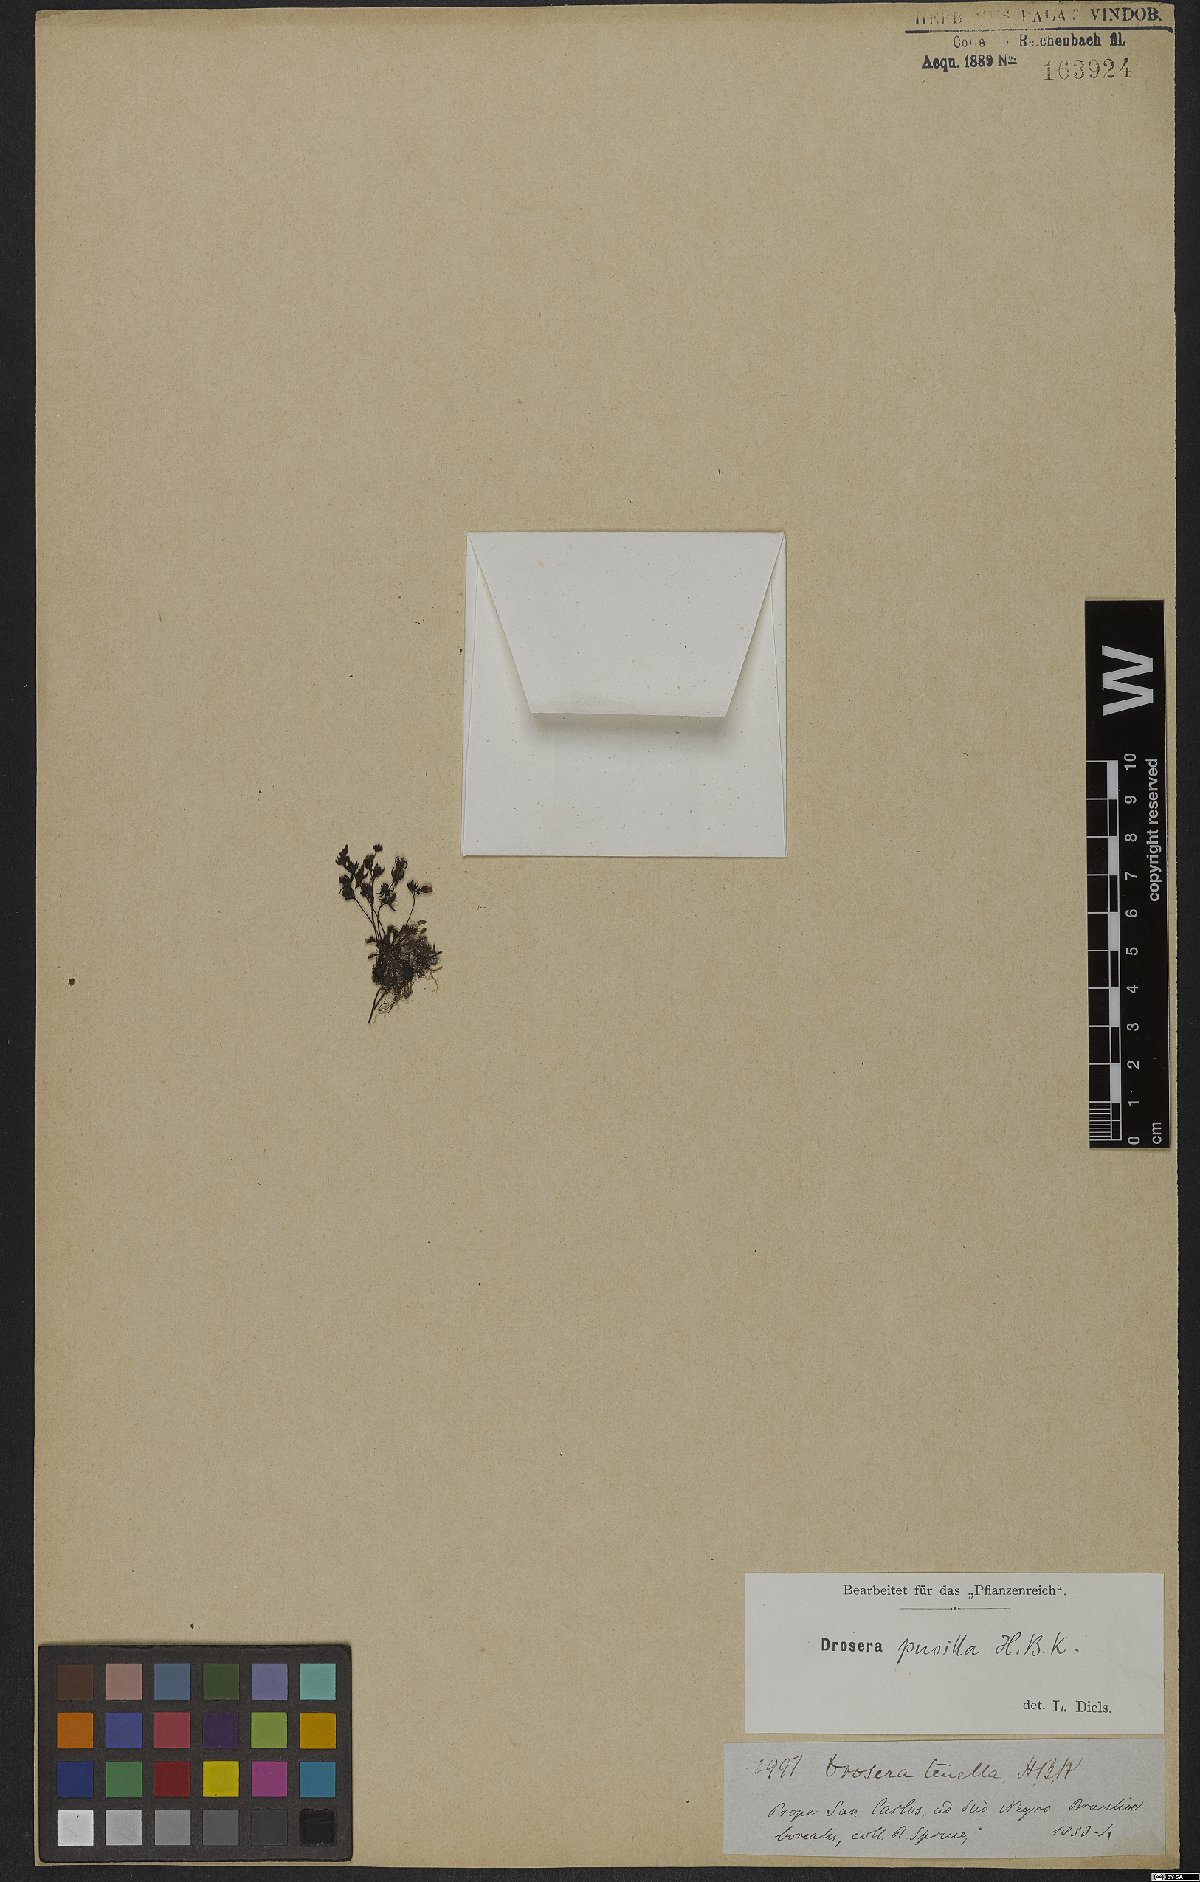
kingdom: Plantae
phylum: Tracheophyta
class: Magnoliopsida
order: Caryophyllales
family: Droseraceae
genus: Drosera
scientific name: Drosera biflora
